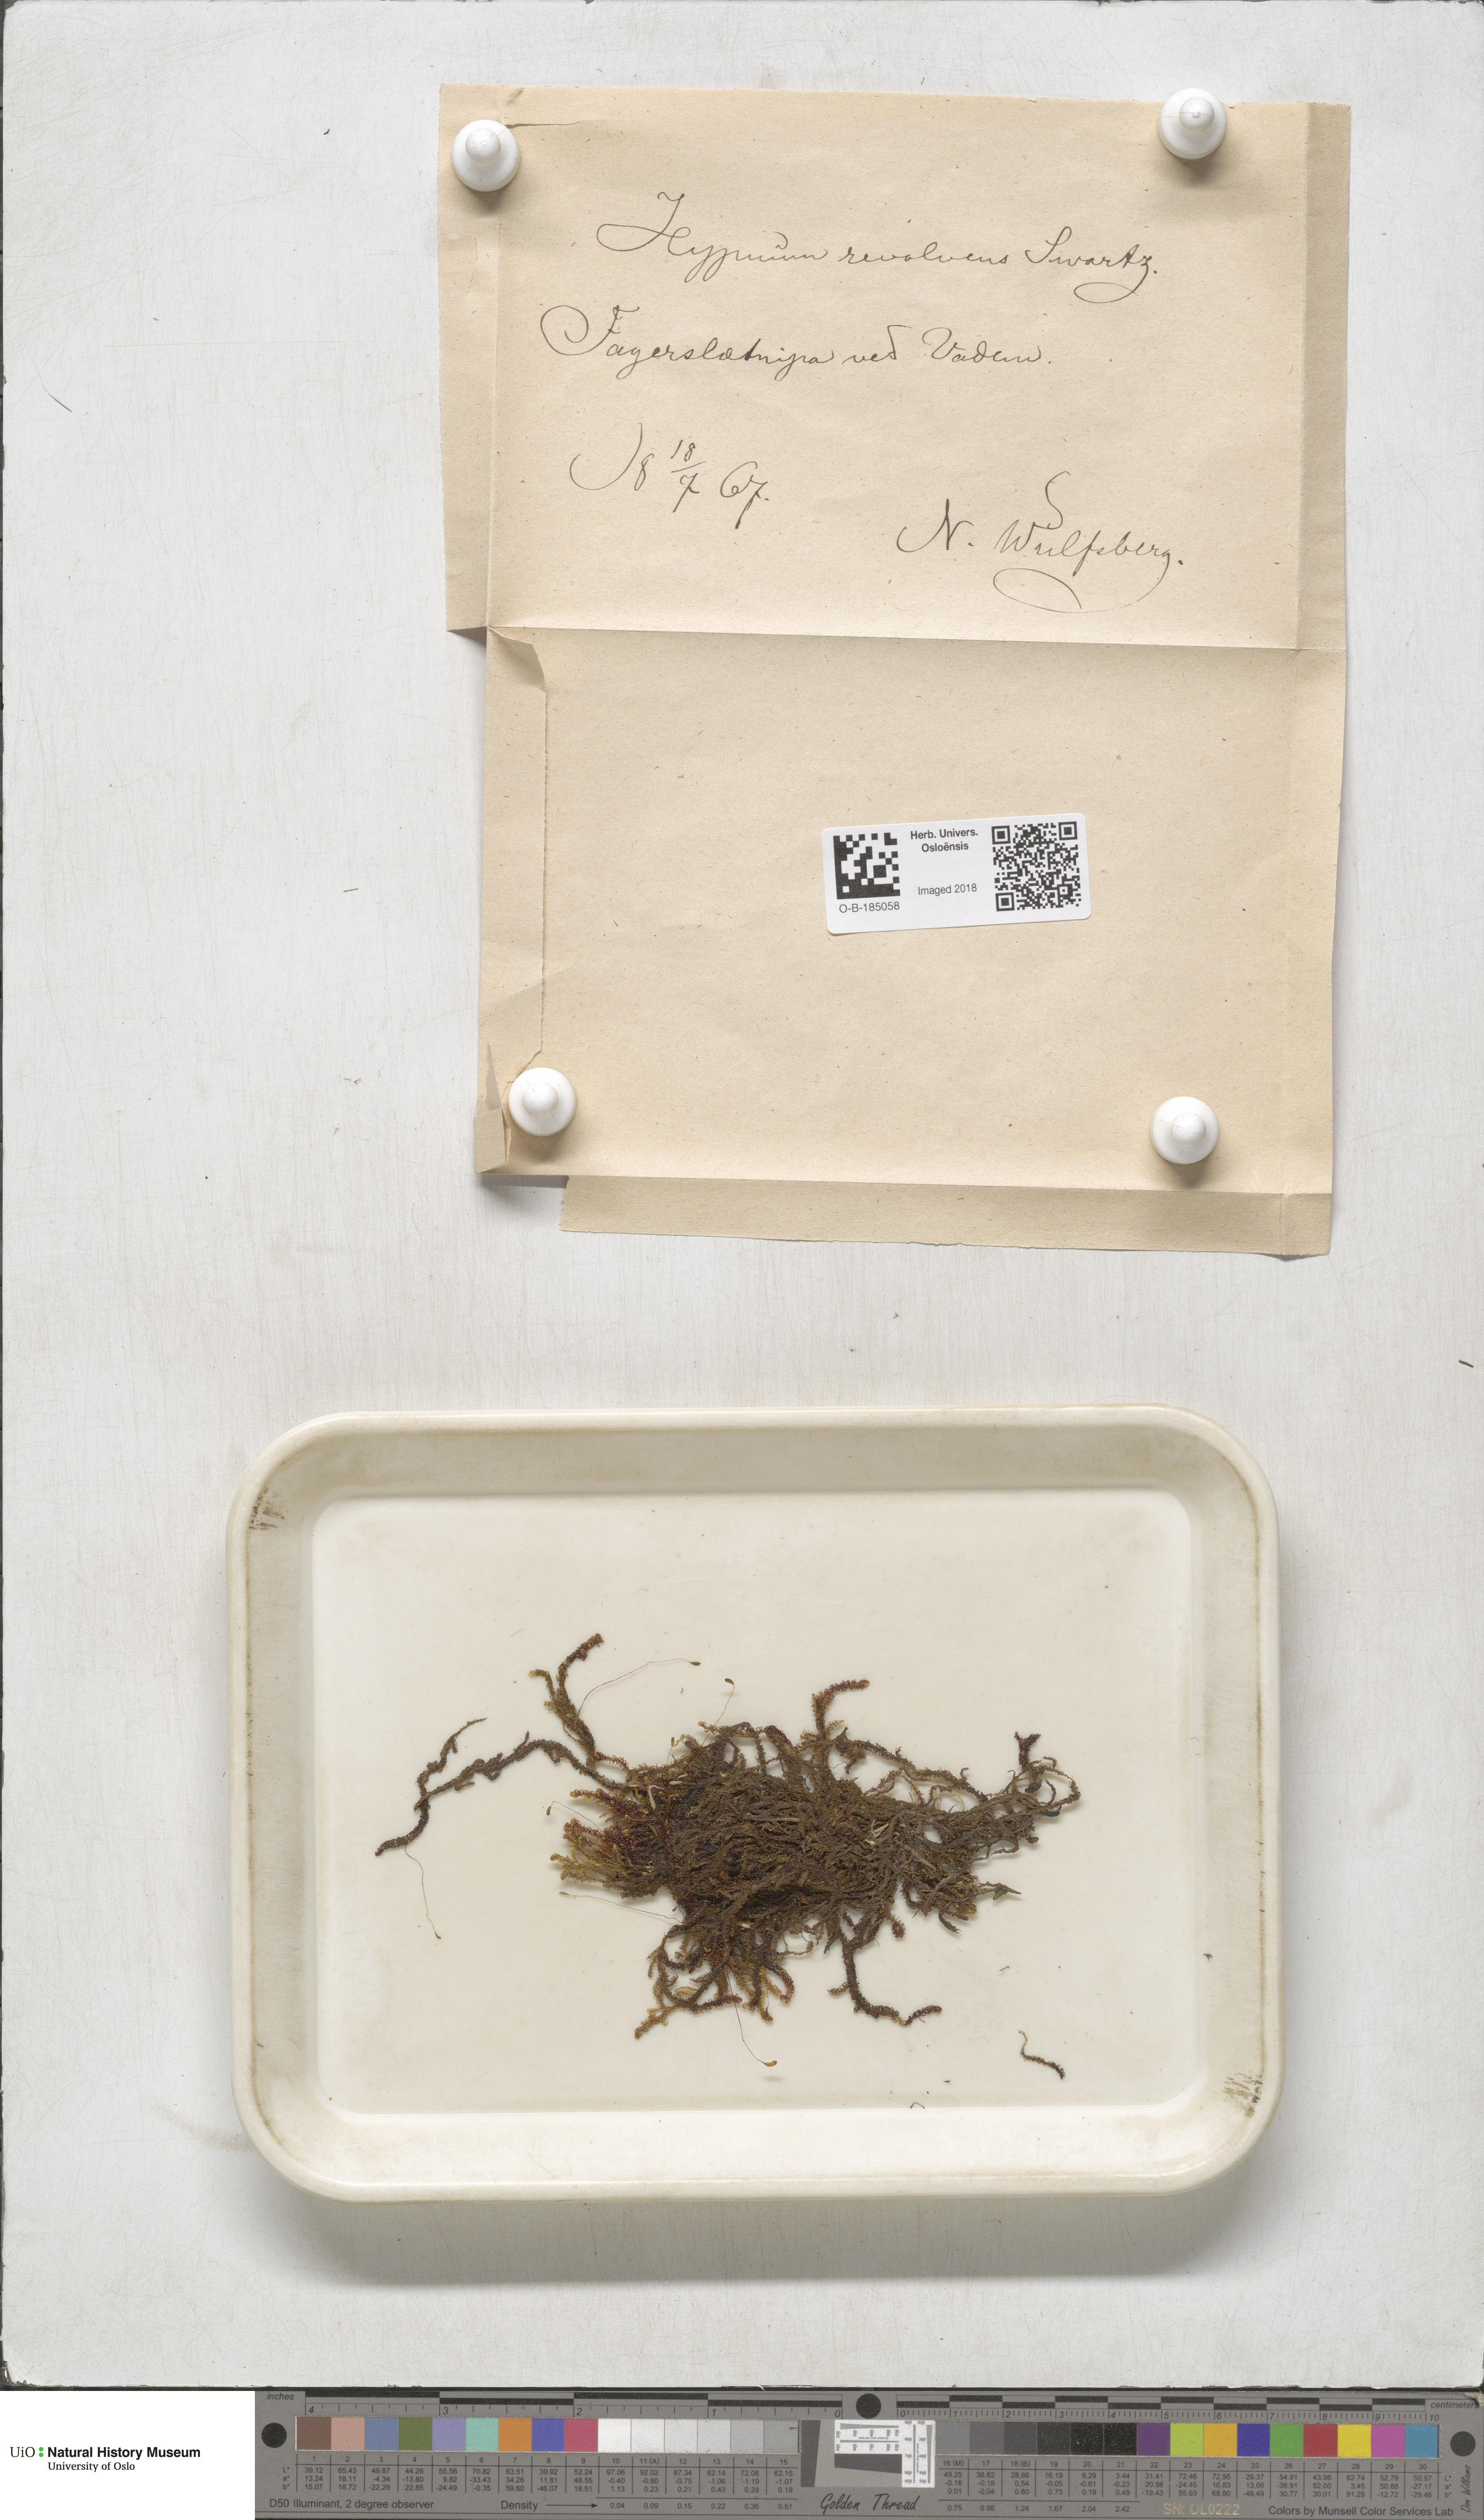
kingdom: Plantae
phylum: Bryophyta
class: Bryopsida
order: Hypnales
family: Scorpidiaceae
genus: Scorpidium
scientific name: Scorpidium revolvens
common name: Rusty hook moss
